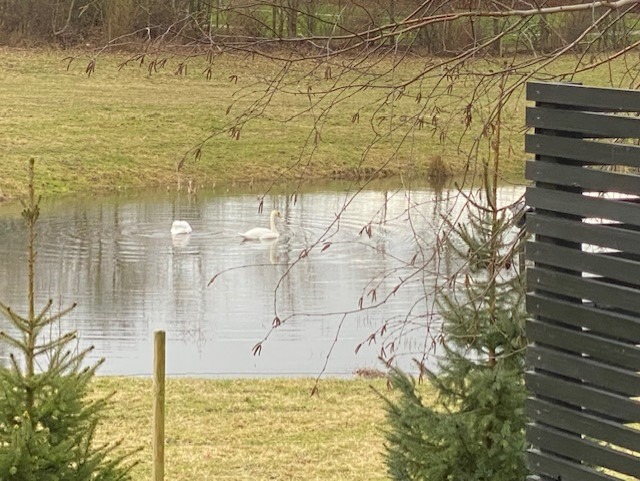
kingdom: Animalia
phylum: Chordata
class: Aves
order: Anseriformes
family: Anatidae
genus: Cygnus
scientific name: Cygnus olor
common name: Knopsvane
